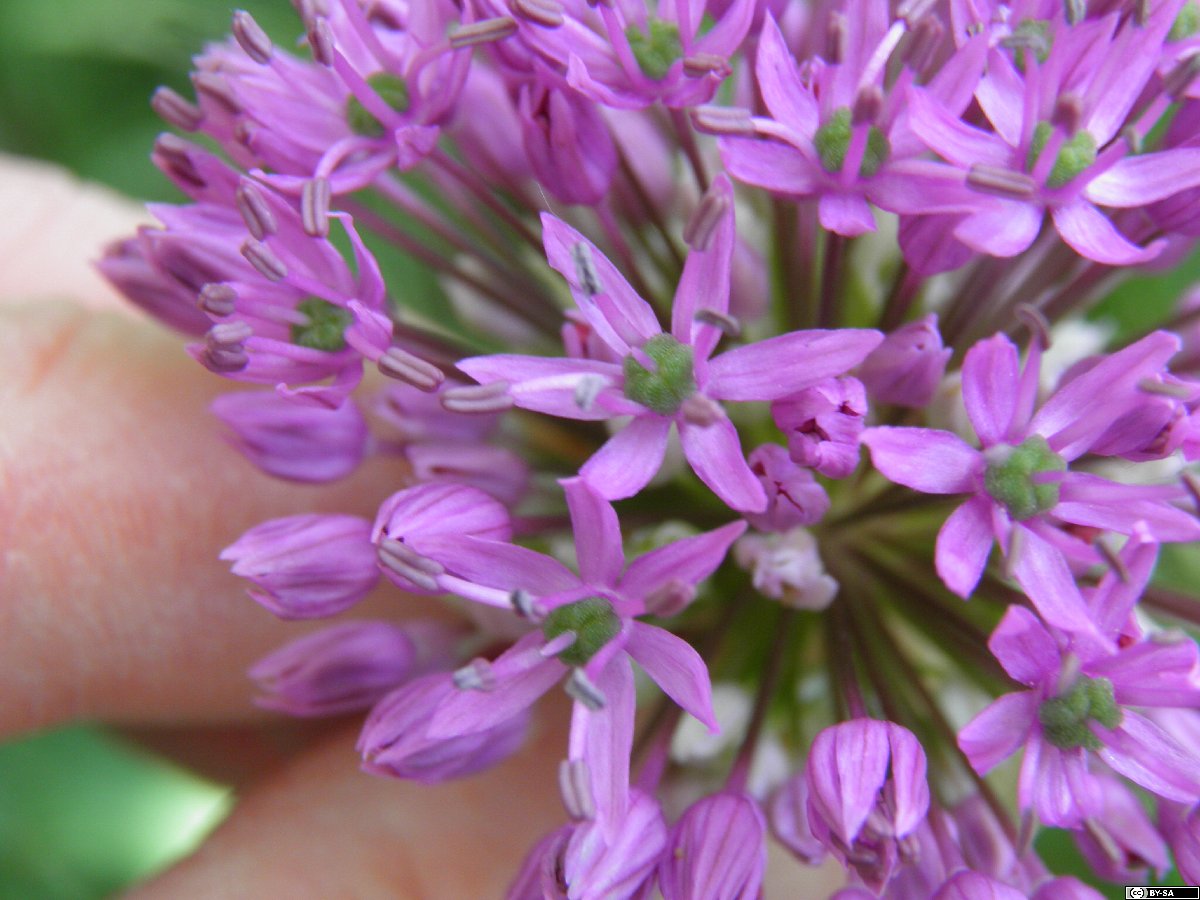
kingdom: Plantae
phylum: Tracheophyta
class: Liliopsida
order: Asparagales
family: Amaryllidaceae
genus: Allium
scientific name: Allium hollandicum
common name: Persian onion
